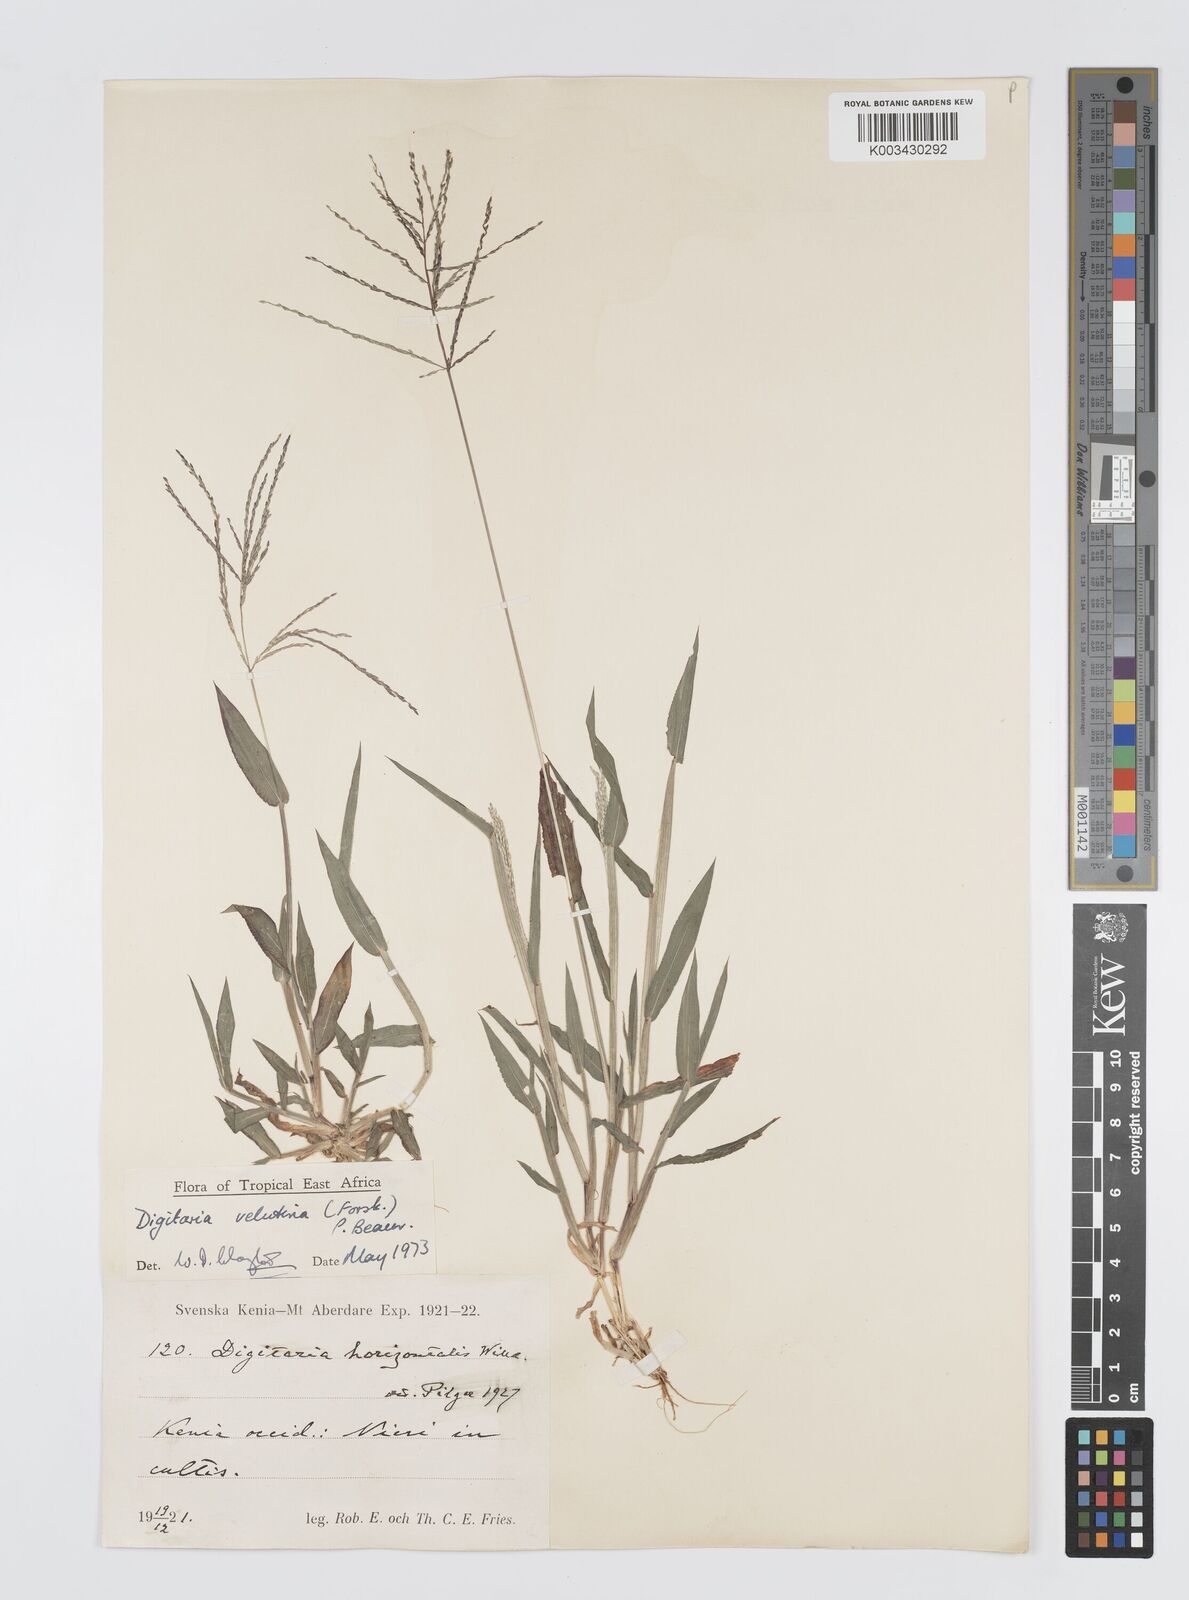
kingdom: Plantae
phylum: Tracheophyta
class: Liliopsida
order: Poales
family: Poaceae
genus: Digitaria
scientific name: Digitaria velutina
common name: Long-plume finger grass
